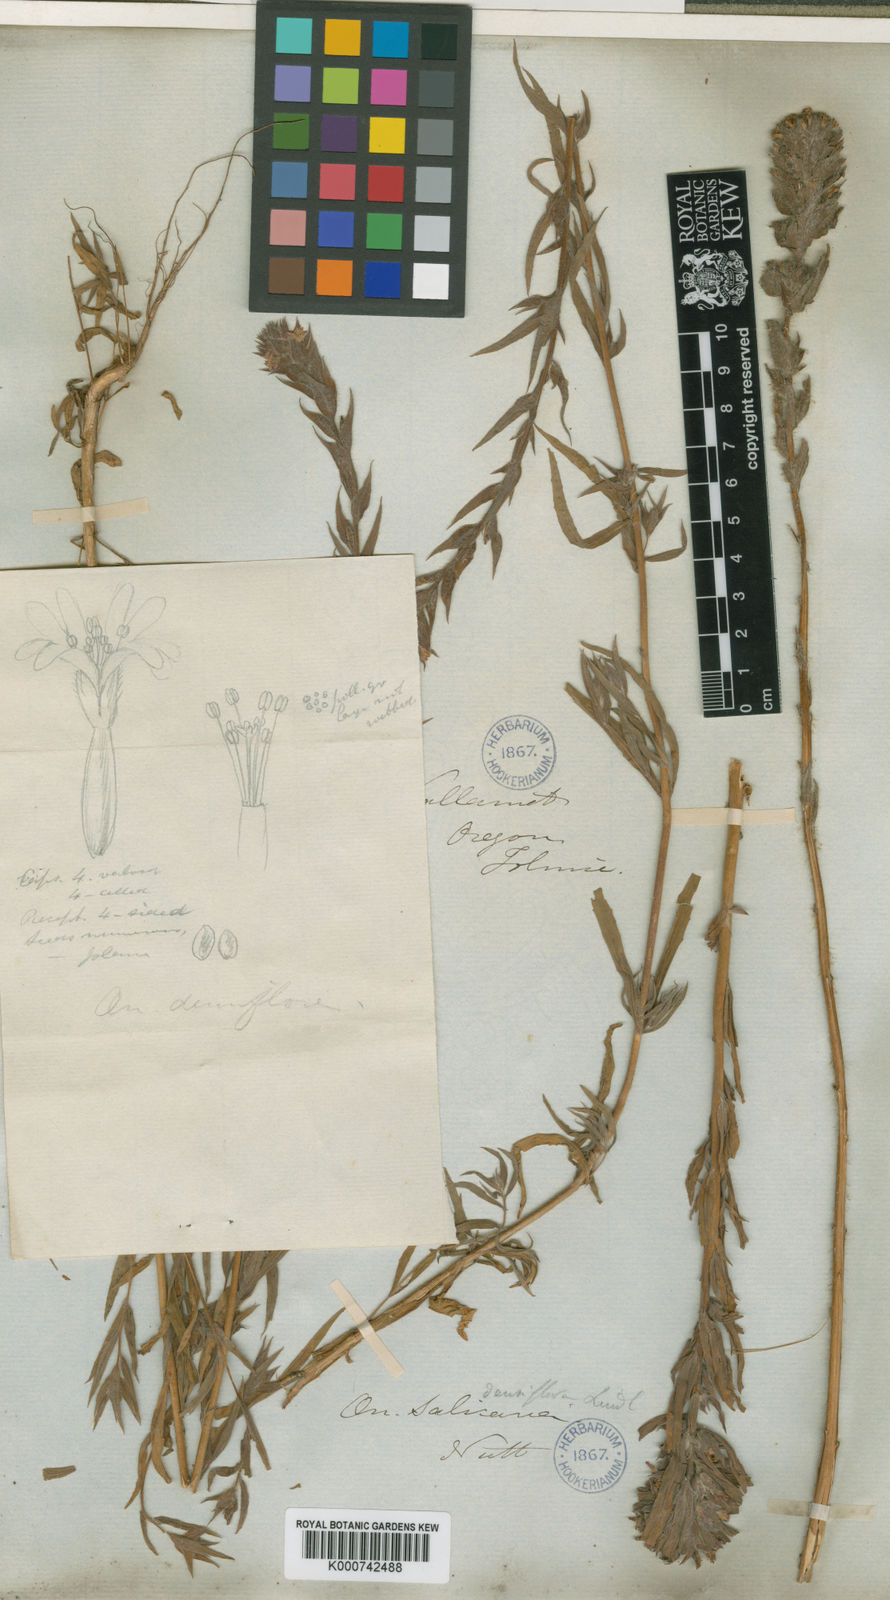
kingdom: Plantae
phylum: Tracheophyta
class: Magnoliopsida
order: Myrtales
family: Onagraceae
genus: Epilobium
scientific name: Epilobium densiflorum
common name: Dense spike-primrose
